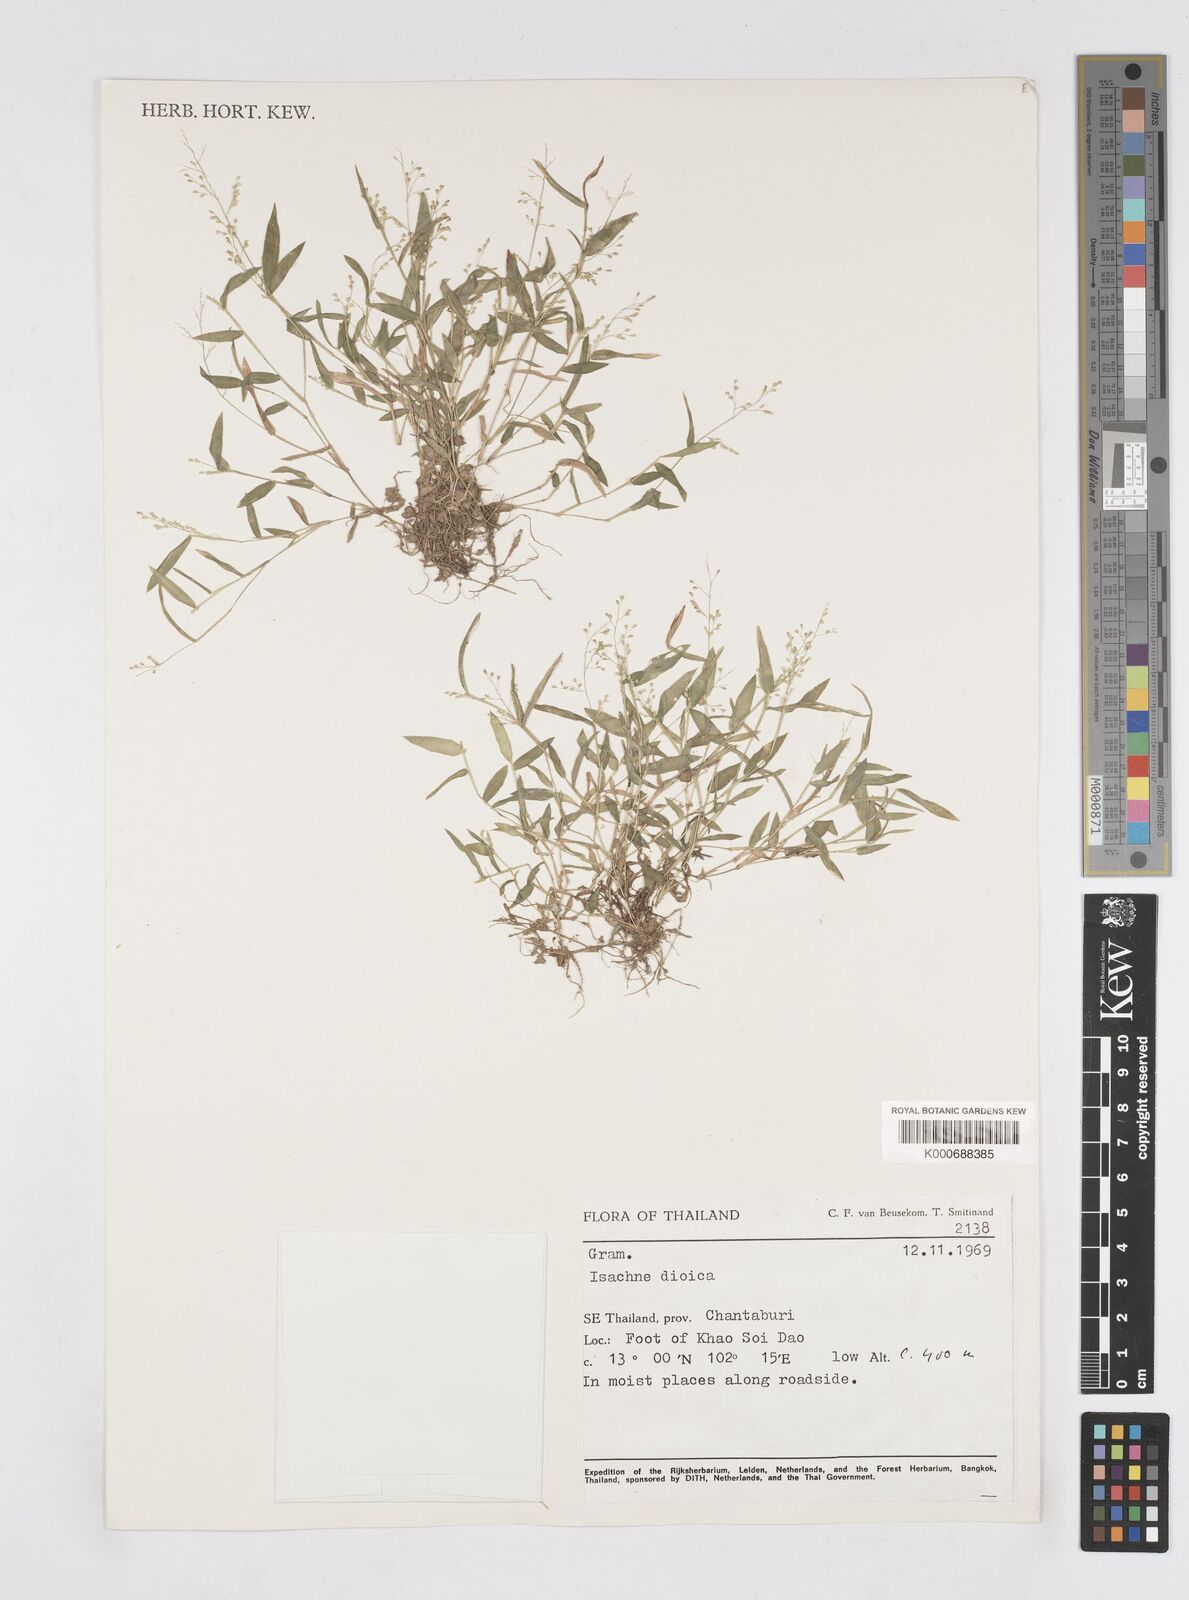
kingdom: Plantae
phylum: Tracheophyta
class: Liliopsida
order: Poales
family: Poaceae
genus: Isachne
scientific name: Isachne dioica
